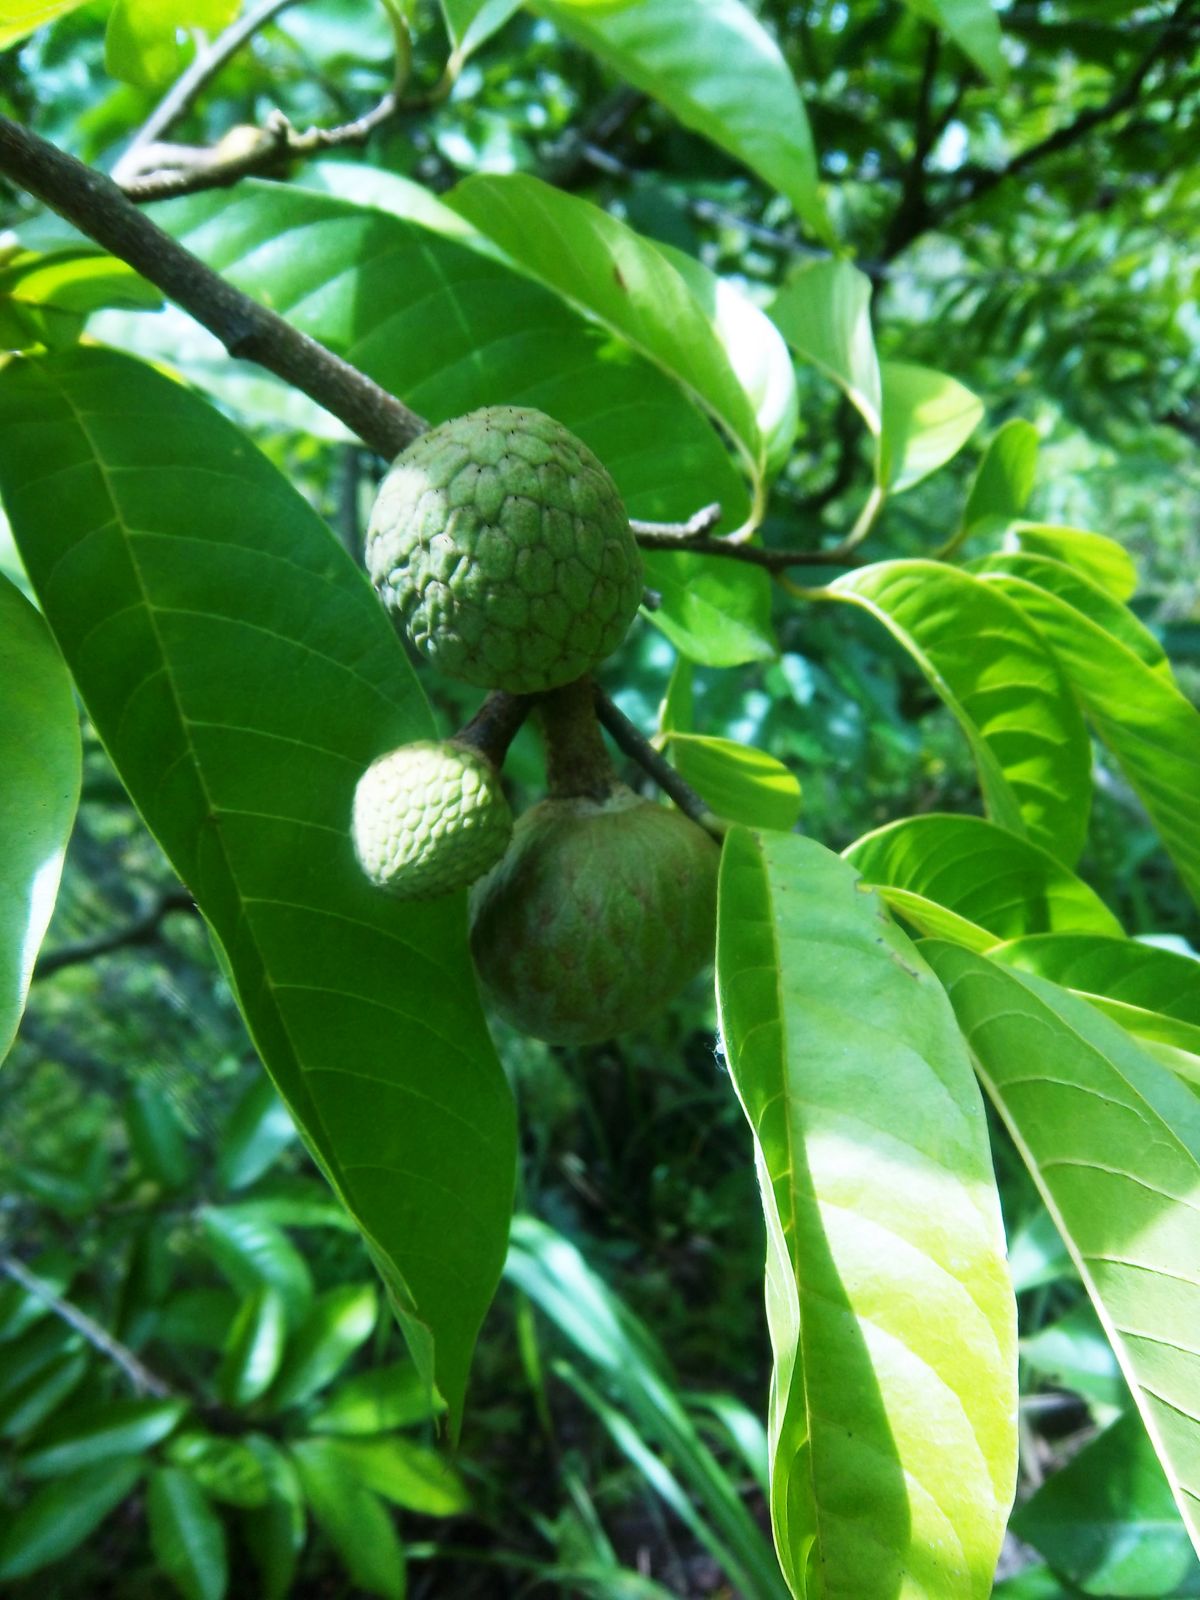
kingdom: Plantae
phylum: Tracheophyta
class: Magnoliopsida
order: Magnoliales
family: Annonaceae
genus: Annona
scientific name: Annona reticulata
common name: Custard apple
